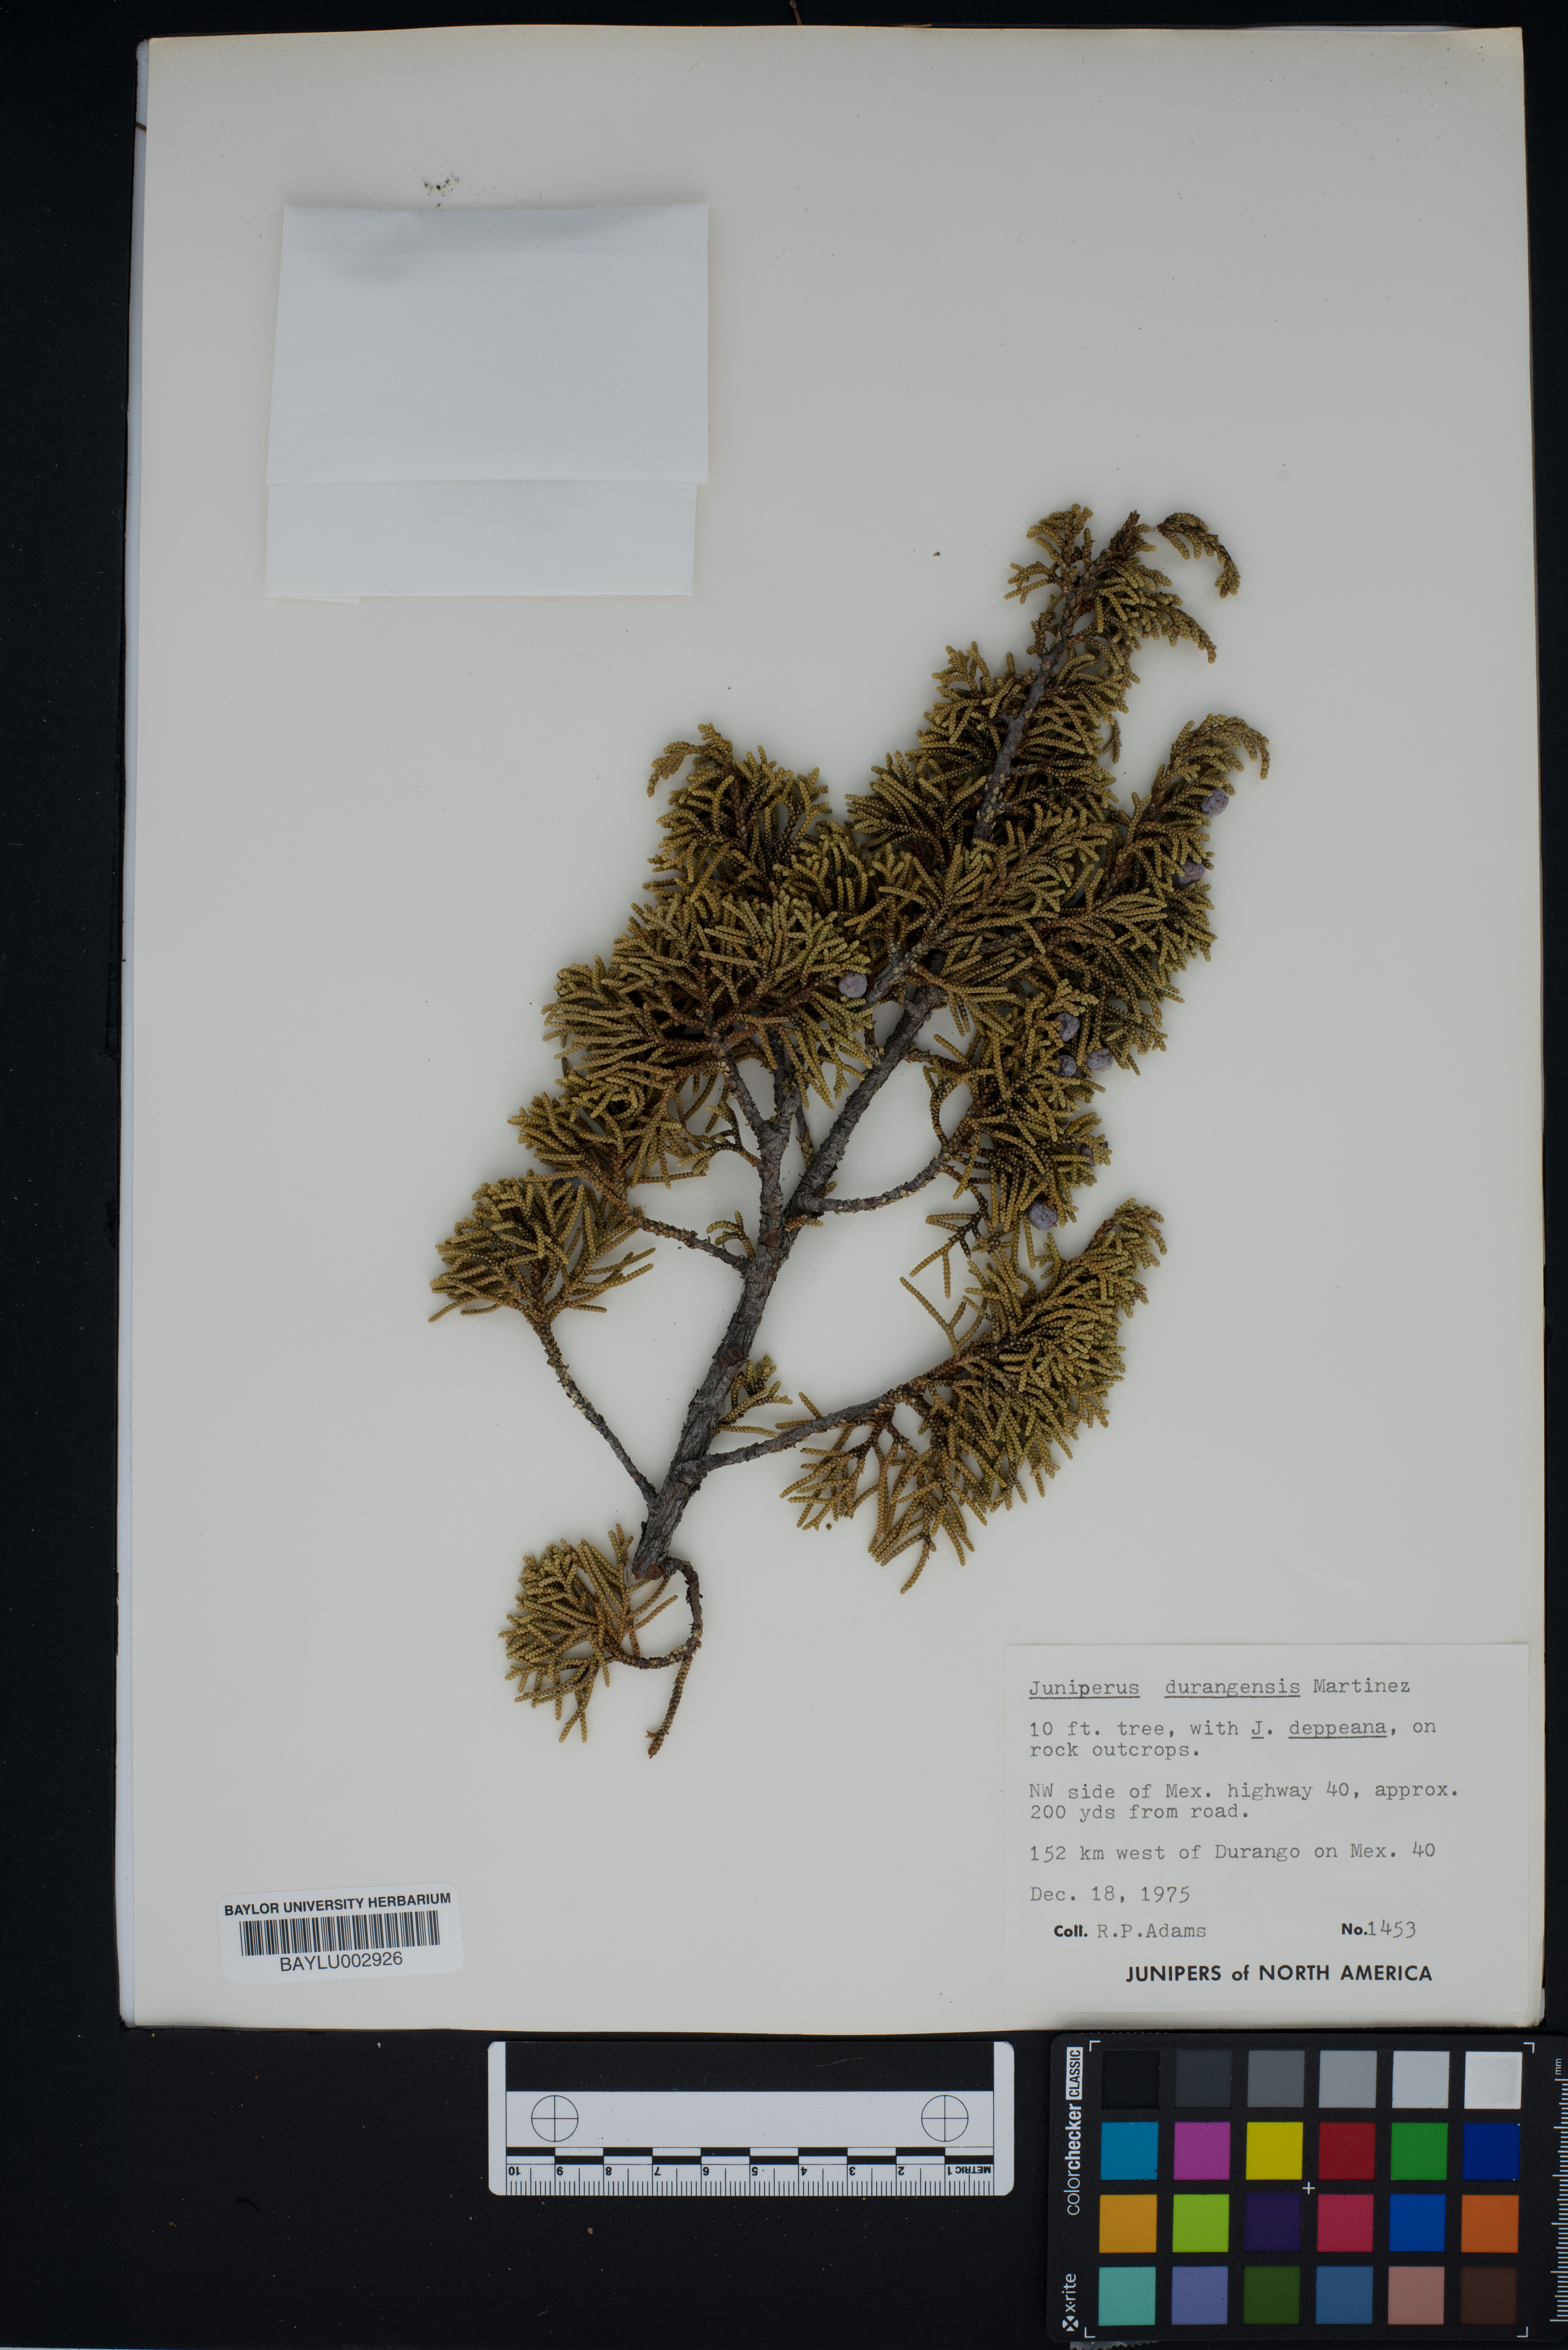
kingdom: Plantae
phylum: Tracheophyta
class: Pinopsida
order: Pinales
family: Cupressaceae
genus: Juniperus
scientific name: Juniperus durangensis
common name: Durango juniper
